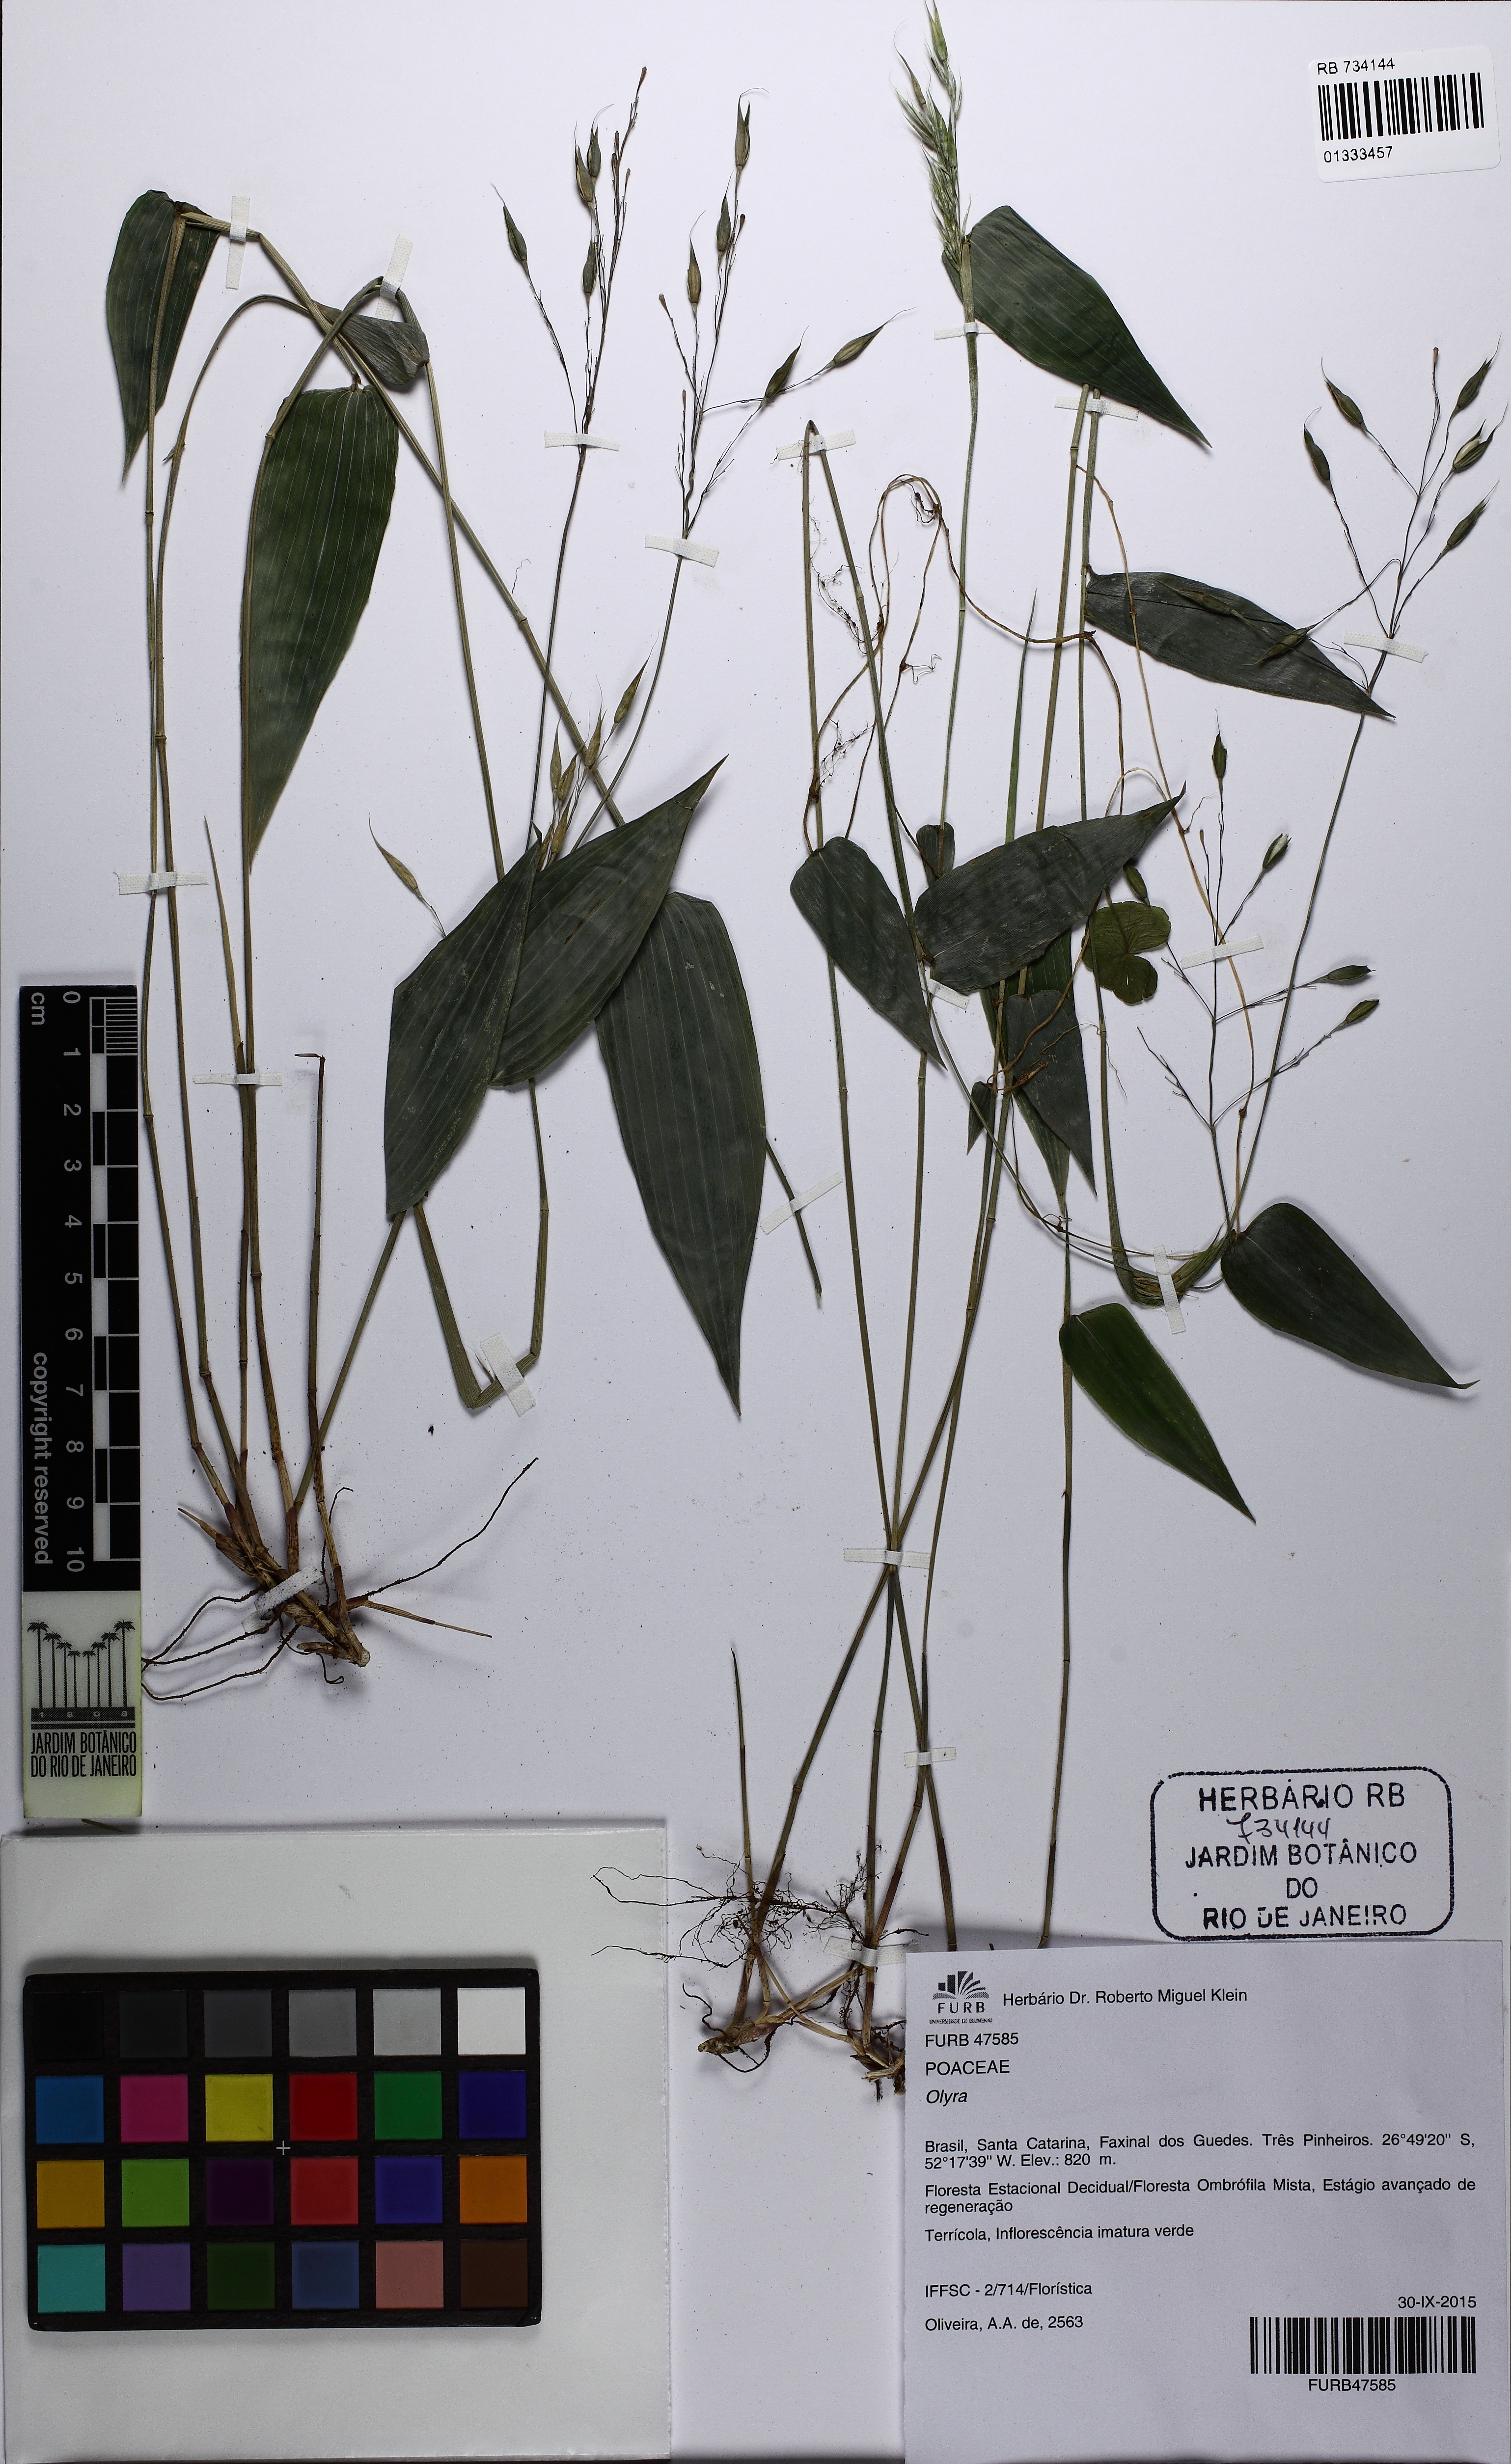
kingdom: Plantae
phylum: Tracheophyta
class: Liliopsida
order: Poales
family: Poaceae
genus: Olyra
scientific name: Olyra
